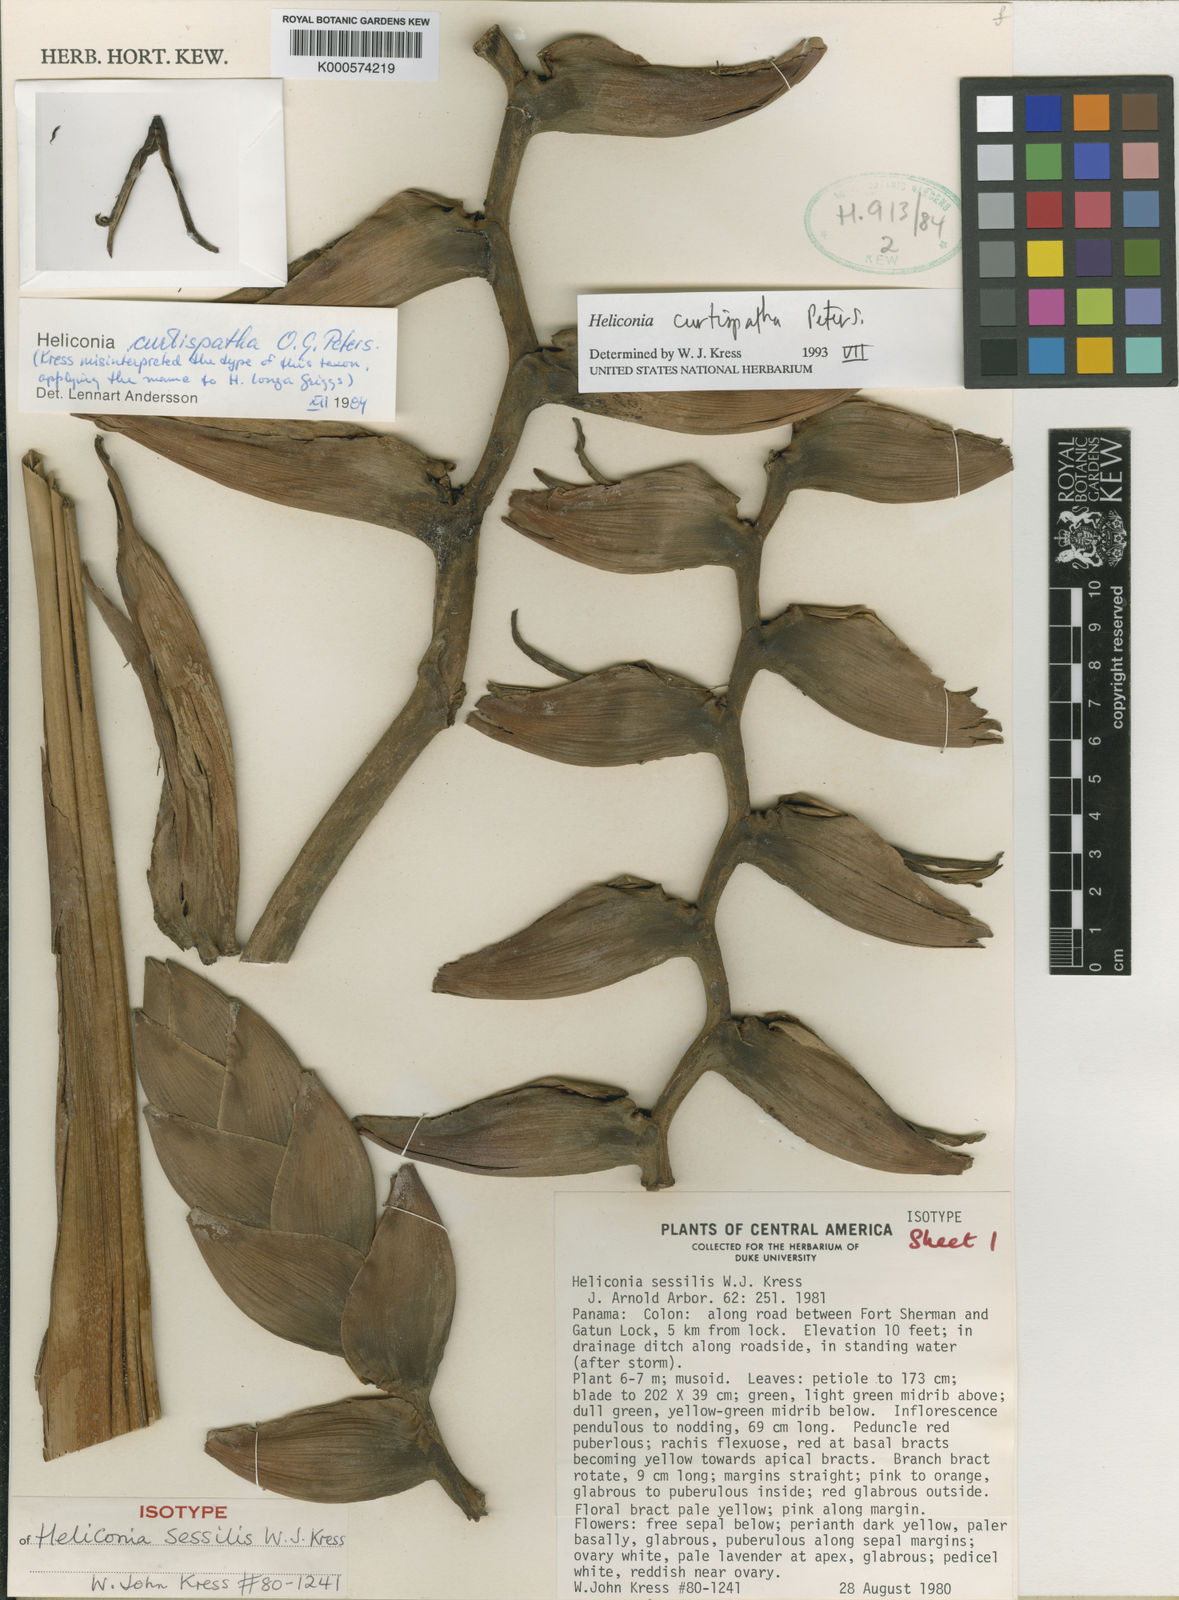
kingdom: Plantae
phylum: Tracheophyta
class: Liliopsida
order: Zingiberales
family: Heliconiaceae
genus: Heliconia
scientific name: Heliconia curtispatha
